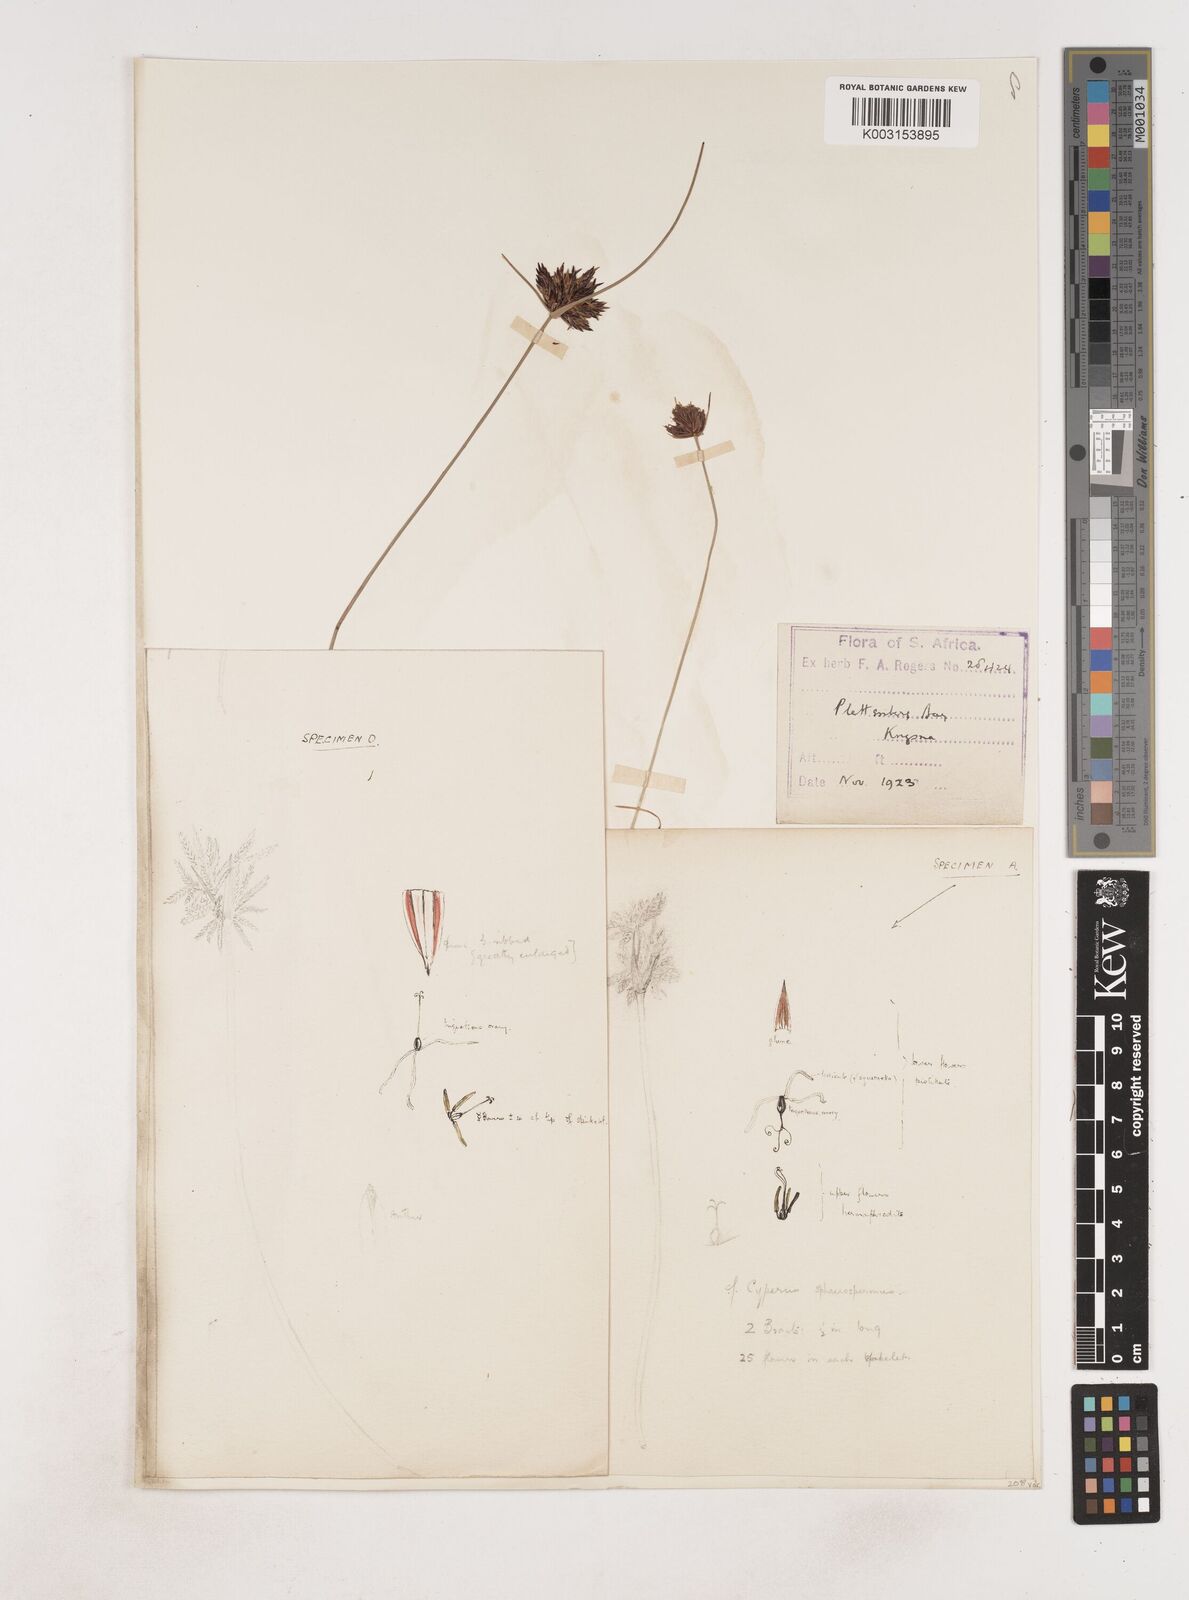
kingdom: Plantae
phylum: Tracheophyta
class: Liliopsida
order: Poales
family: Cyperaceae
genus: Cyperus
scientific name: Cyperus
